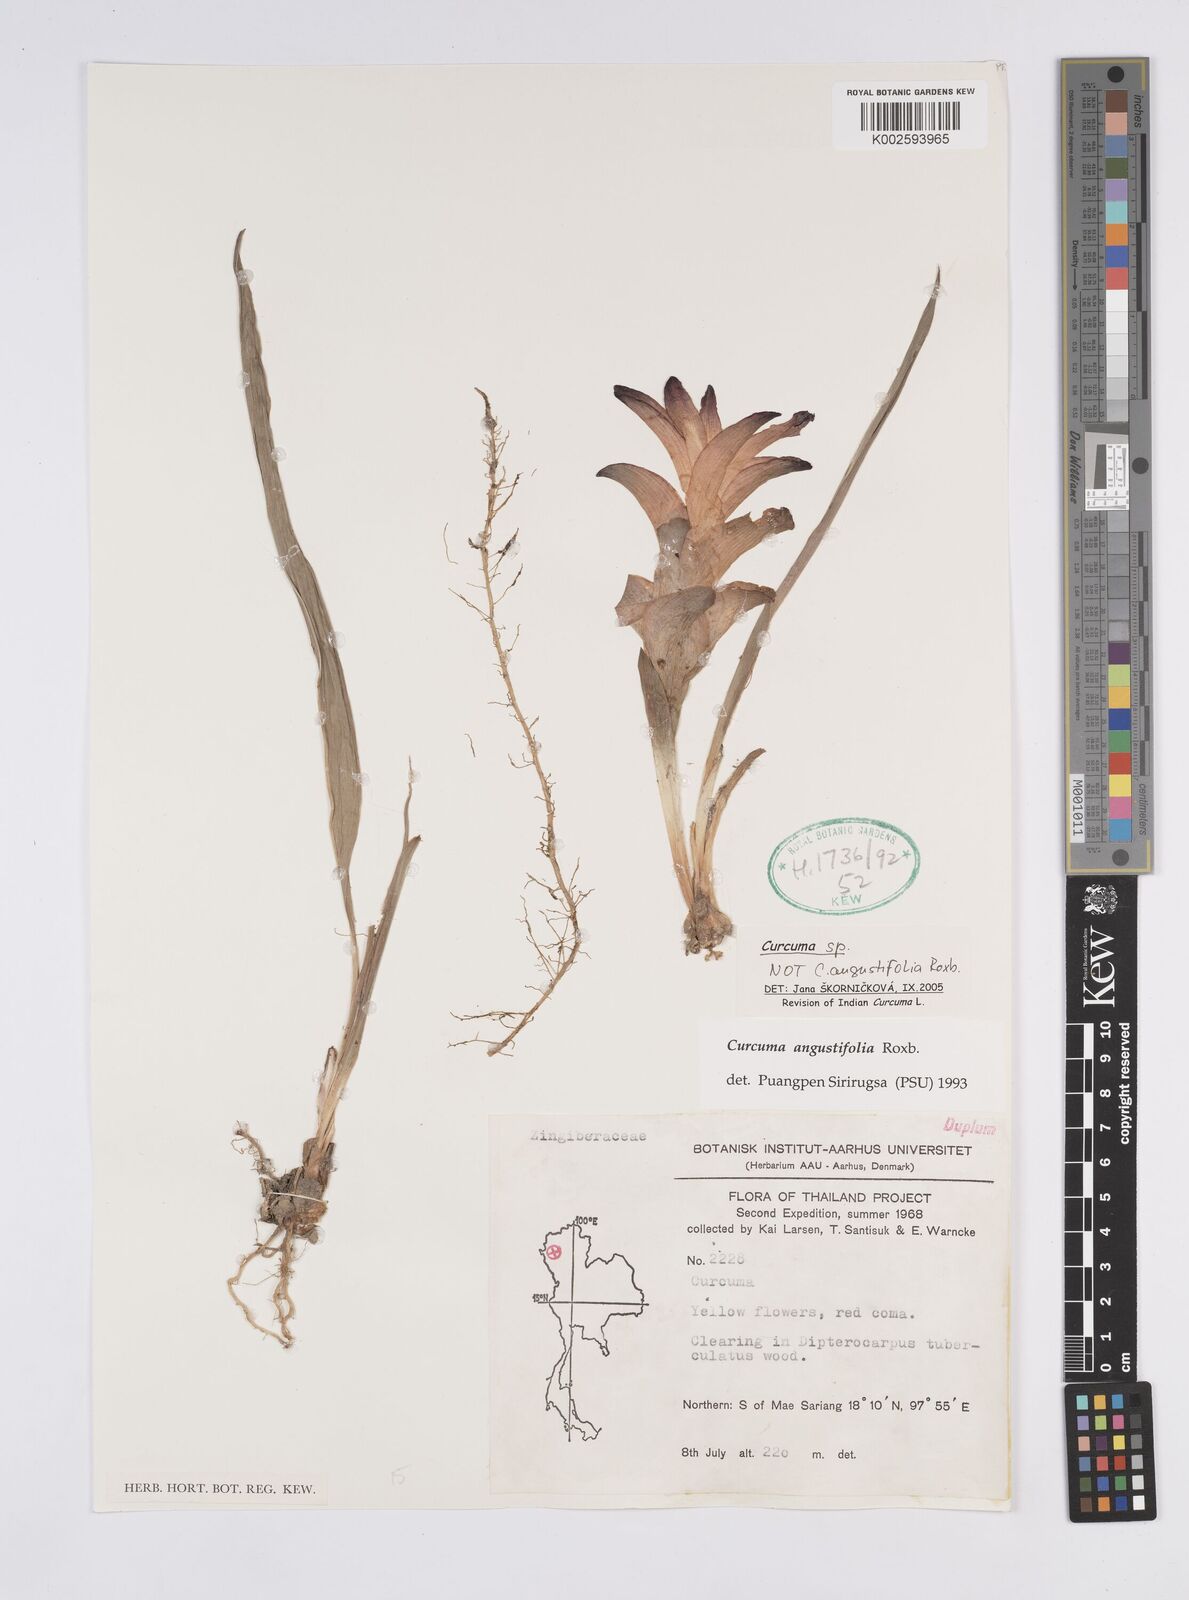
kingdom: Plantae
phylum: Tracheophyta
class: Liliopsida
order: Zingiberales
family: Zingiberaceae
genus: Curcuma
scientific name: Curcuma
